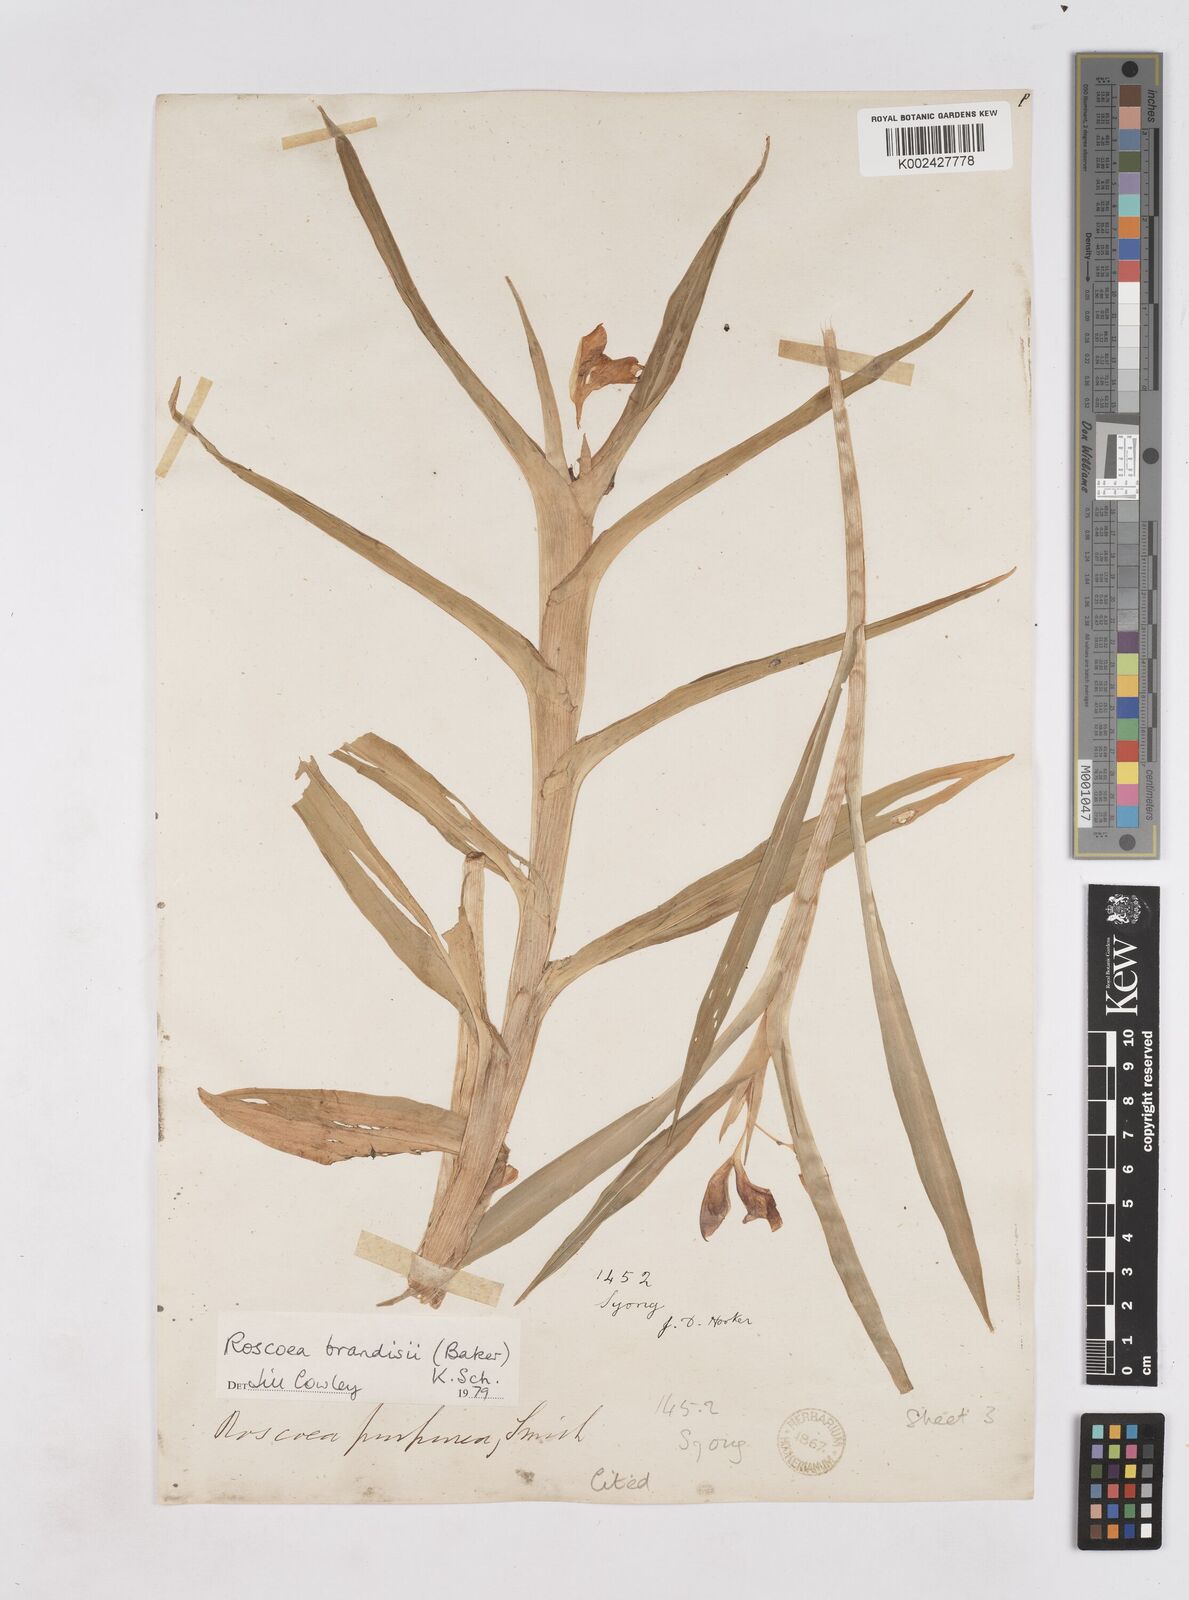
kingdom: Plantae
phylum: Tracheophyta
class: Liliopsida
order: Zingiberales
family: Zingiberaceae
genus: Roscoea
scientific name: Roscoea brandisii
